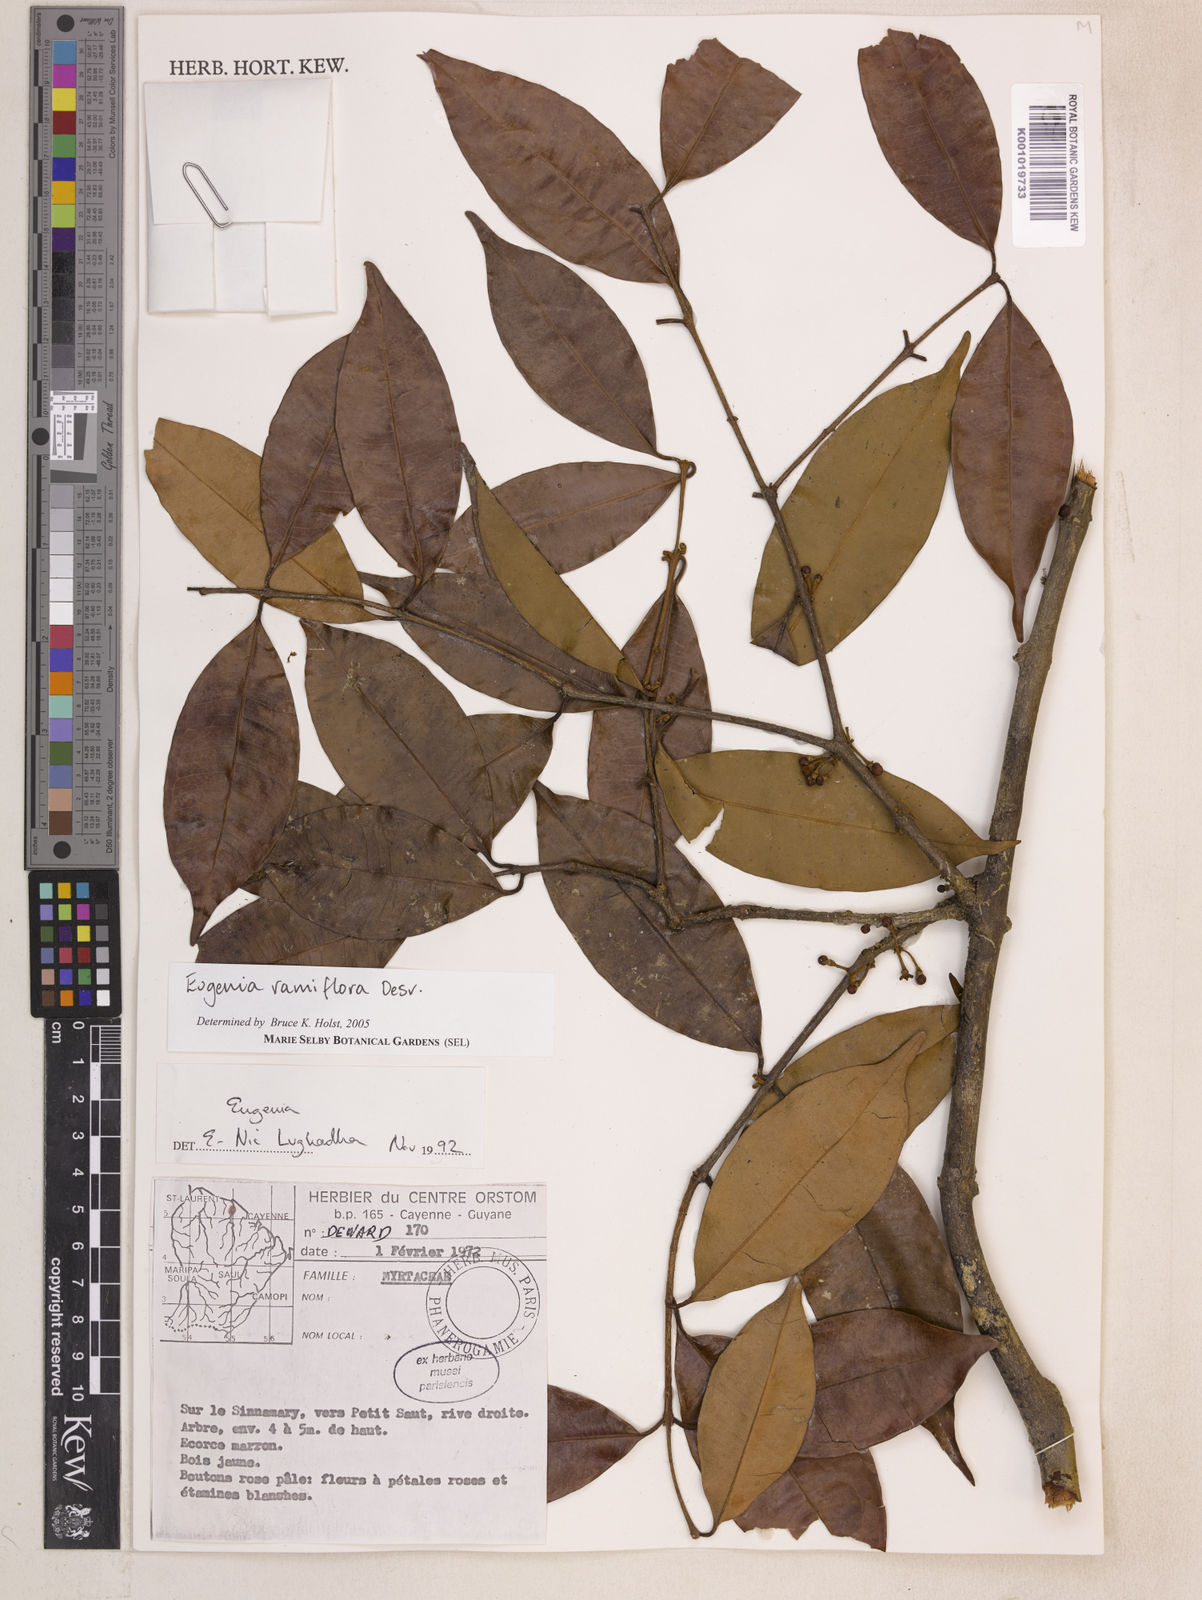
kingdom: Plantae
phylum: Tracheophyta
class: Magnoliopsida
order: Myrtales
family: Myrtaceae
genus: Eugenia
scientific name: Eugenia ramiflora
